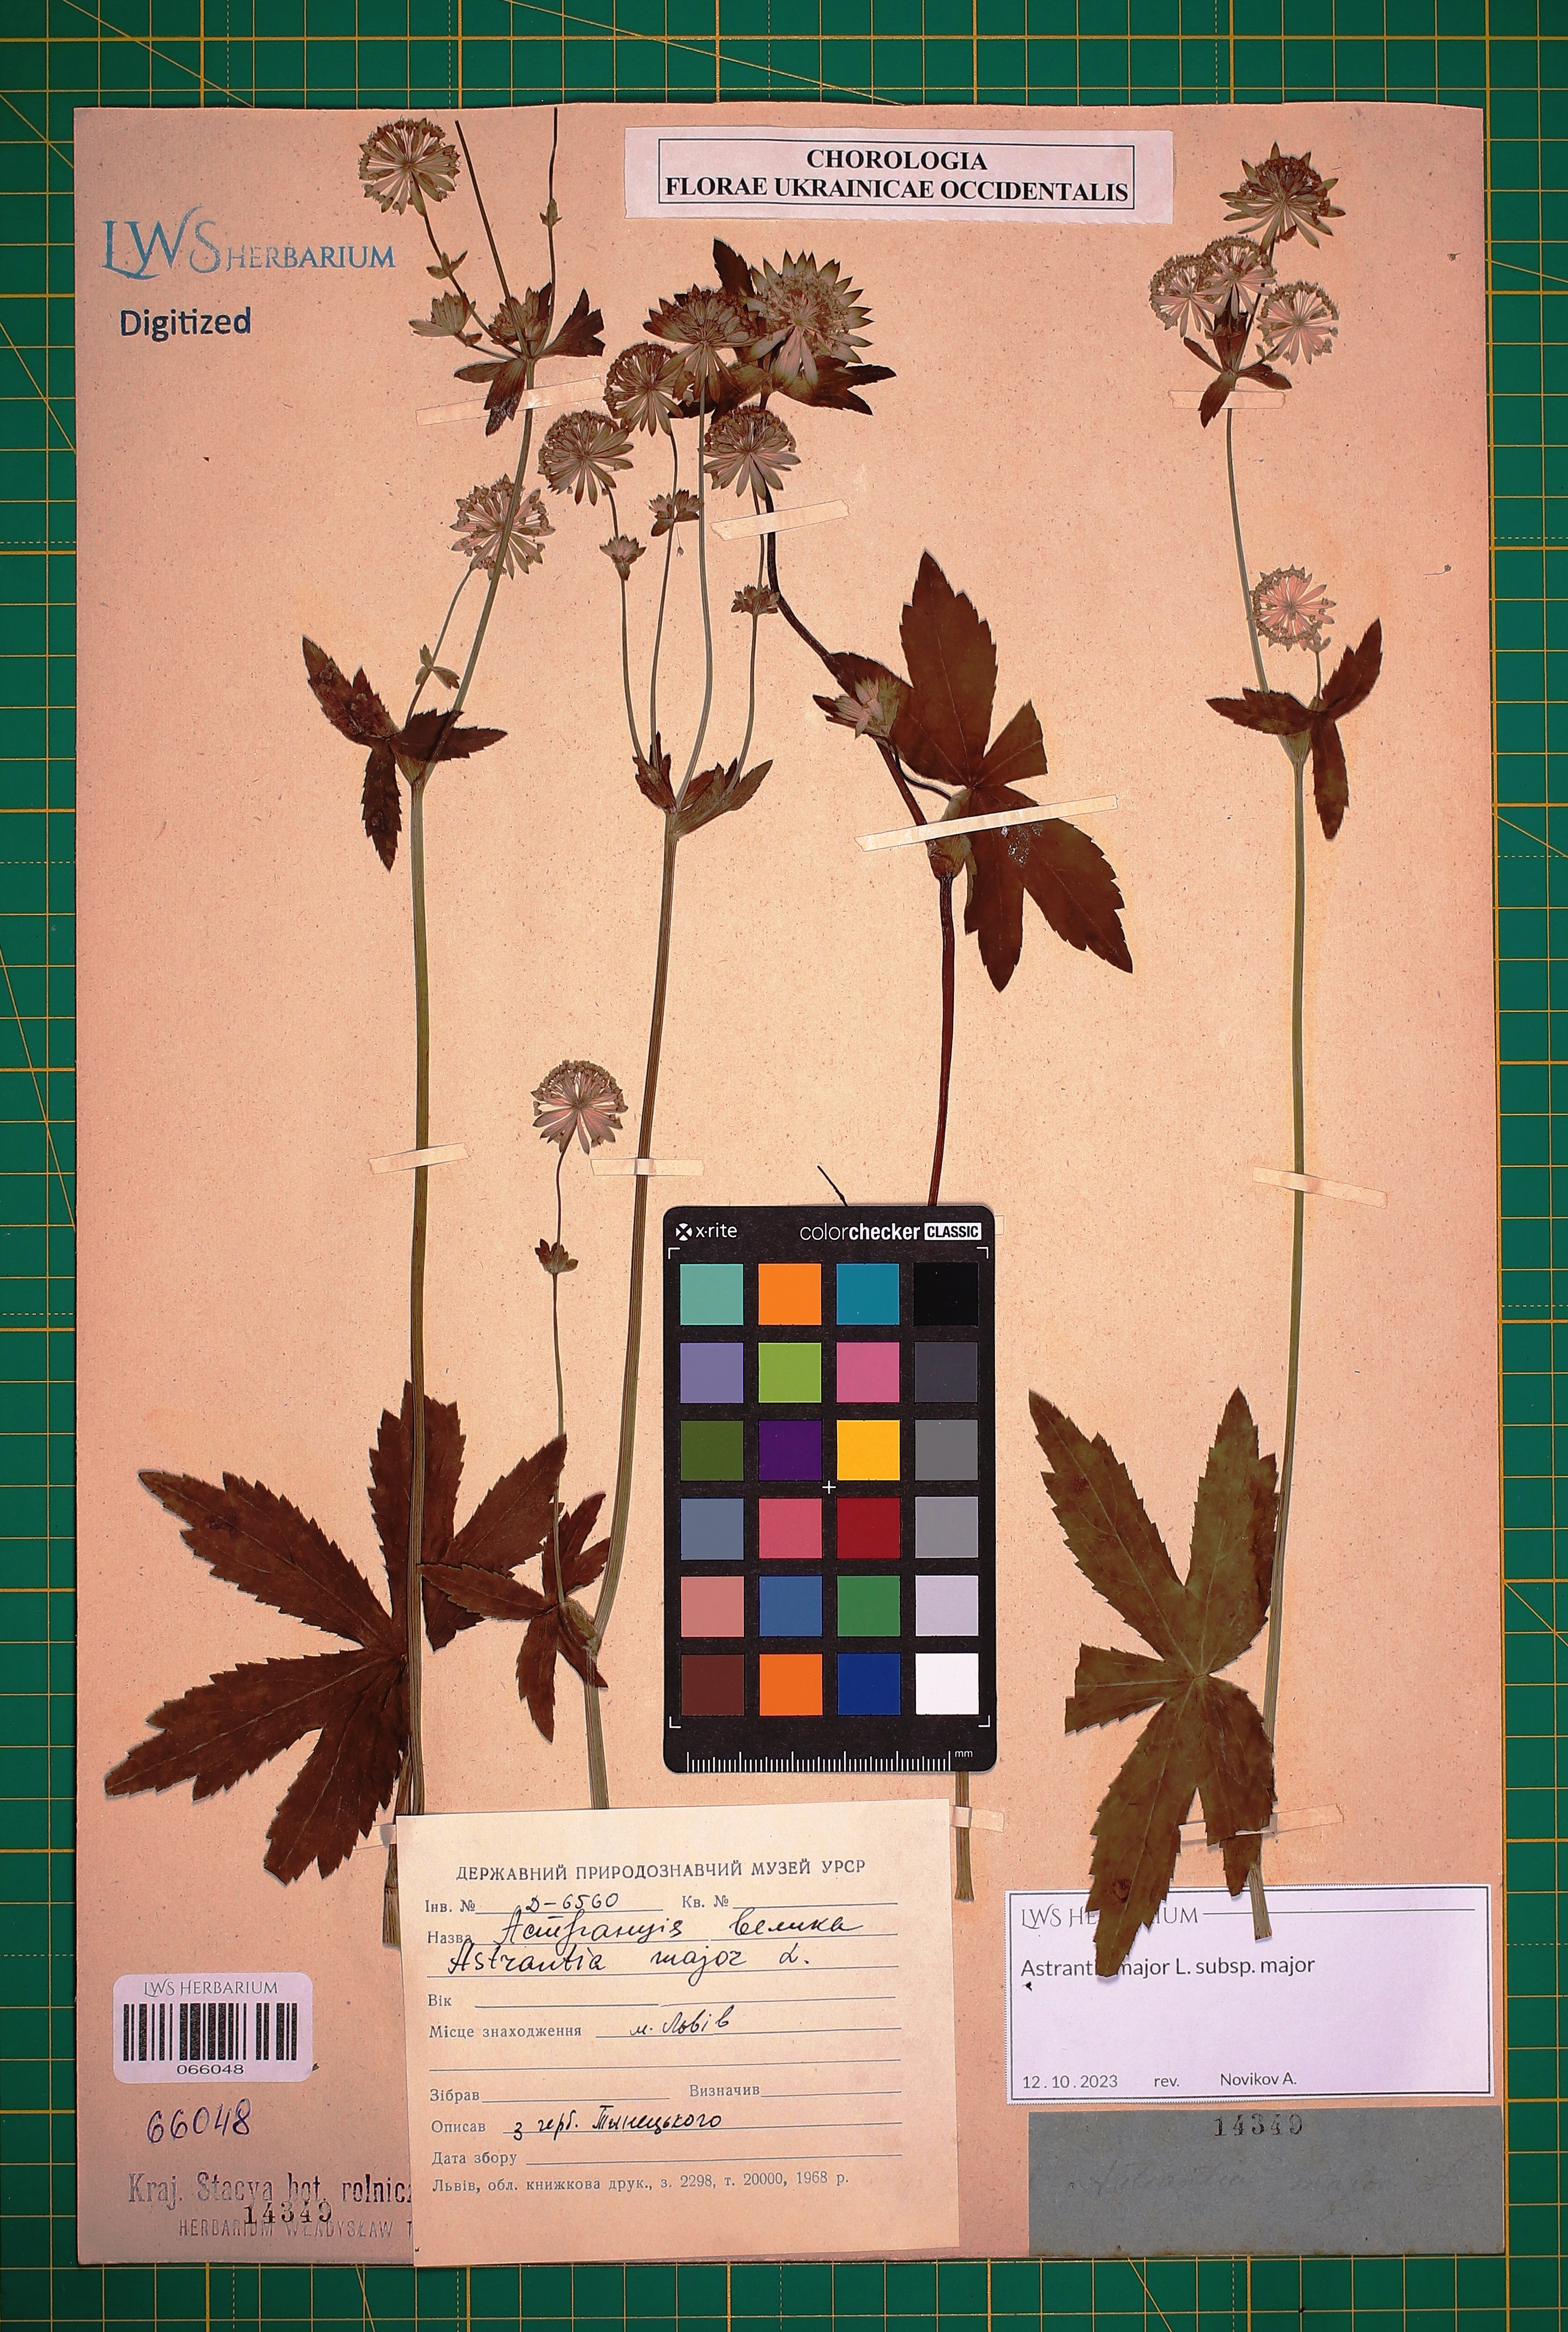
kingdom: Plantae
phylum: Tracheophyta
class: Magnoliopsida
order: Apiales
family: Apiaceae
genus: Astrantia
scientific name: Astrantia major
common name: Greater masterwort
